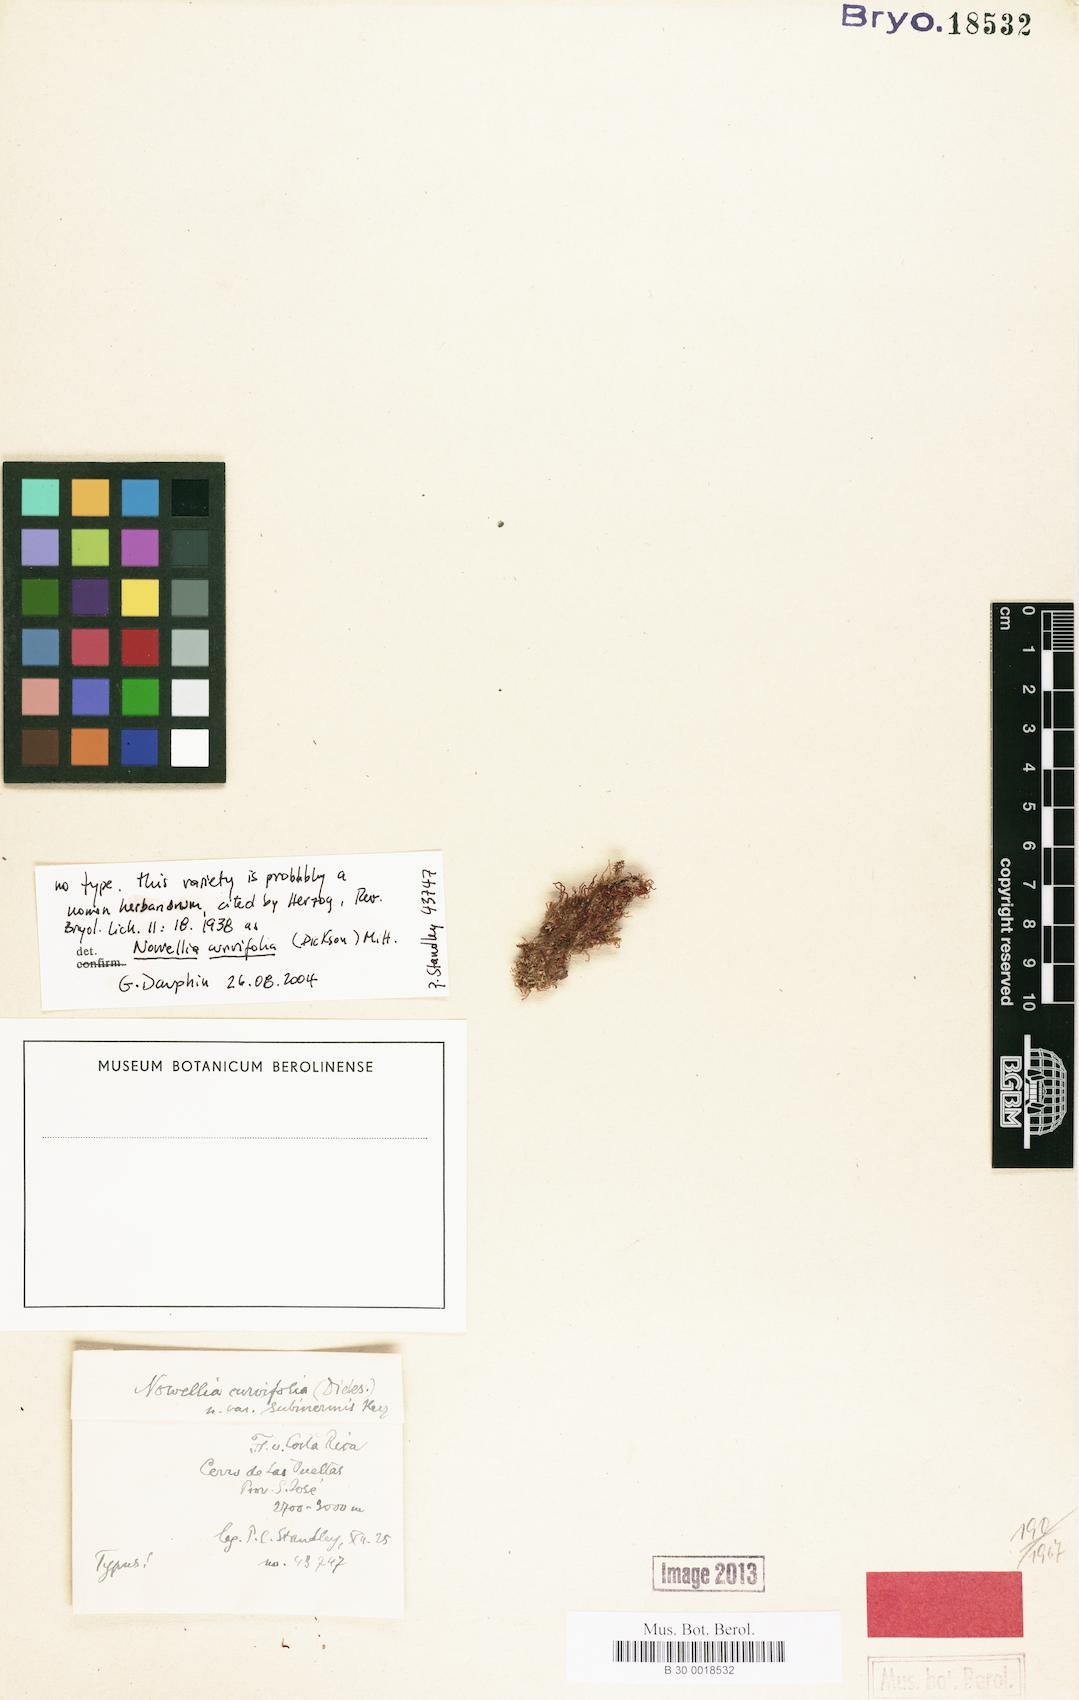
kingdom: Plantae
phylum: Marchantiophyta
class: Jungermanniopsida
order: Jungermanniales
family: Cephaloziaceae
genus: Nowellia
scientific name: Nowellia curvifolia
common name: Wood rustwort
